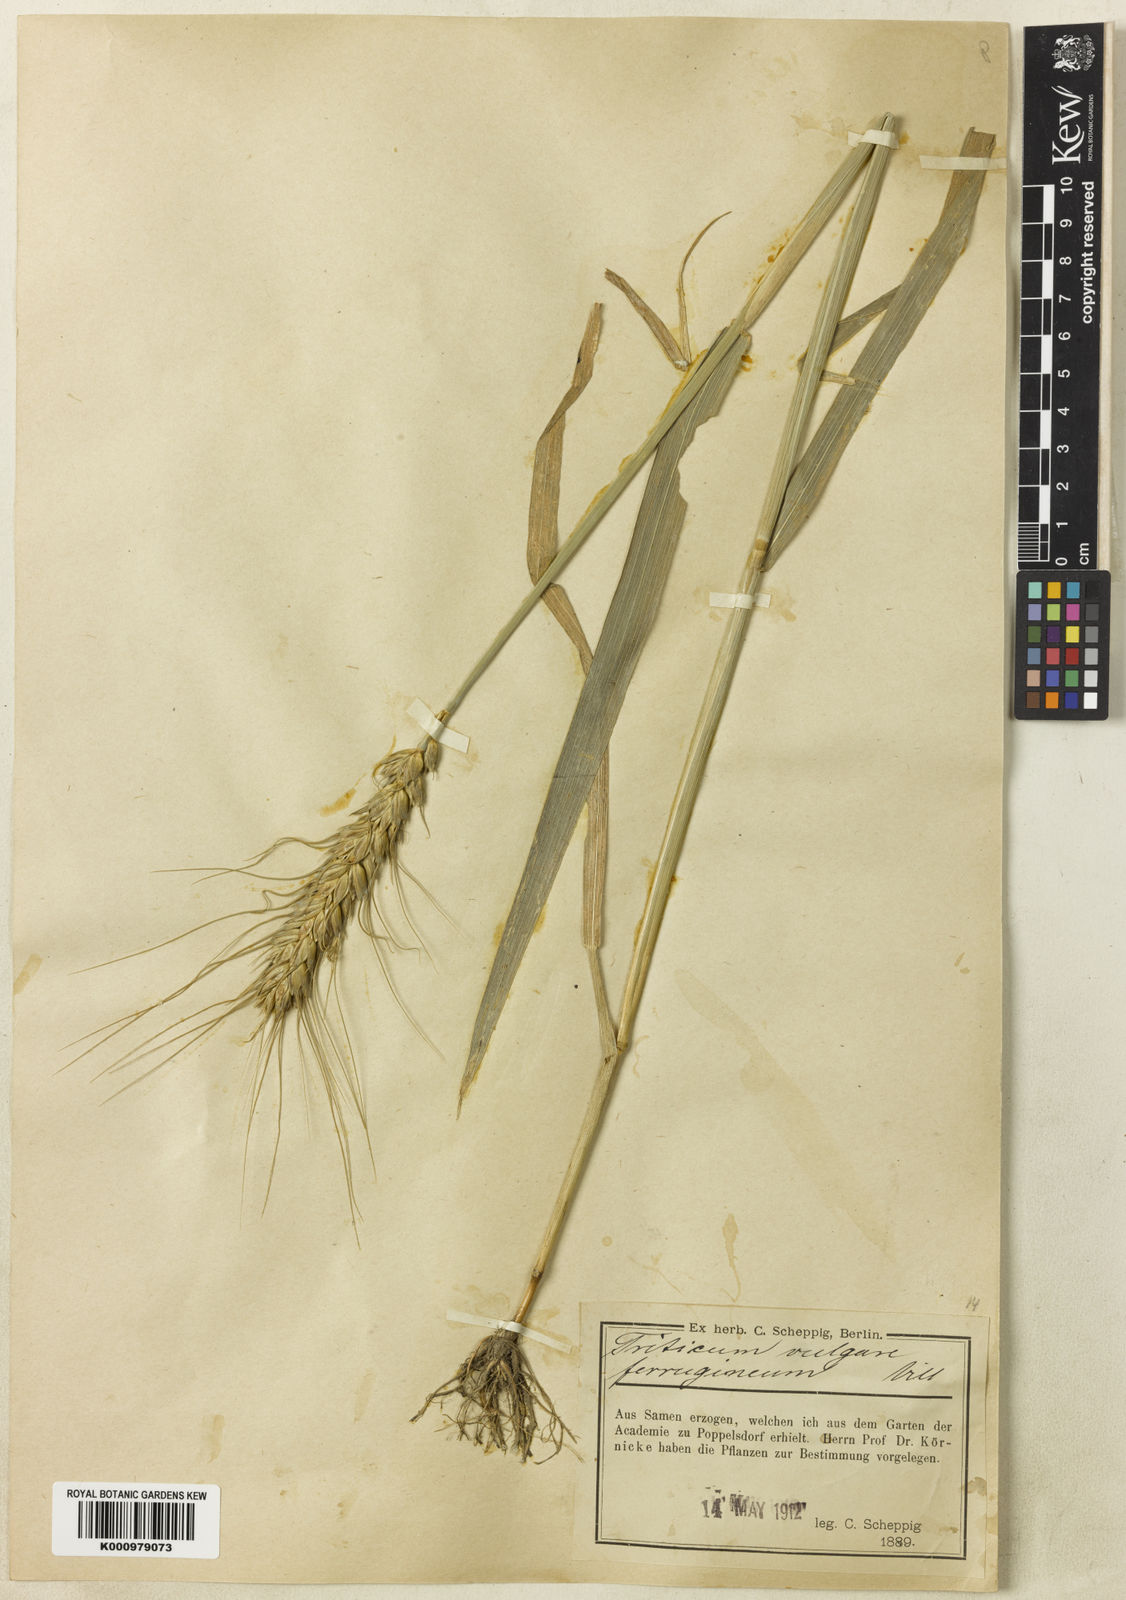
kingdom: Plantae
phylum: Tracheophyta
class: Liliopsida
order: Poales
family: Poaceae
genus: Triticum
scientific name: Triticum aestivum
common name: Common wheat
